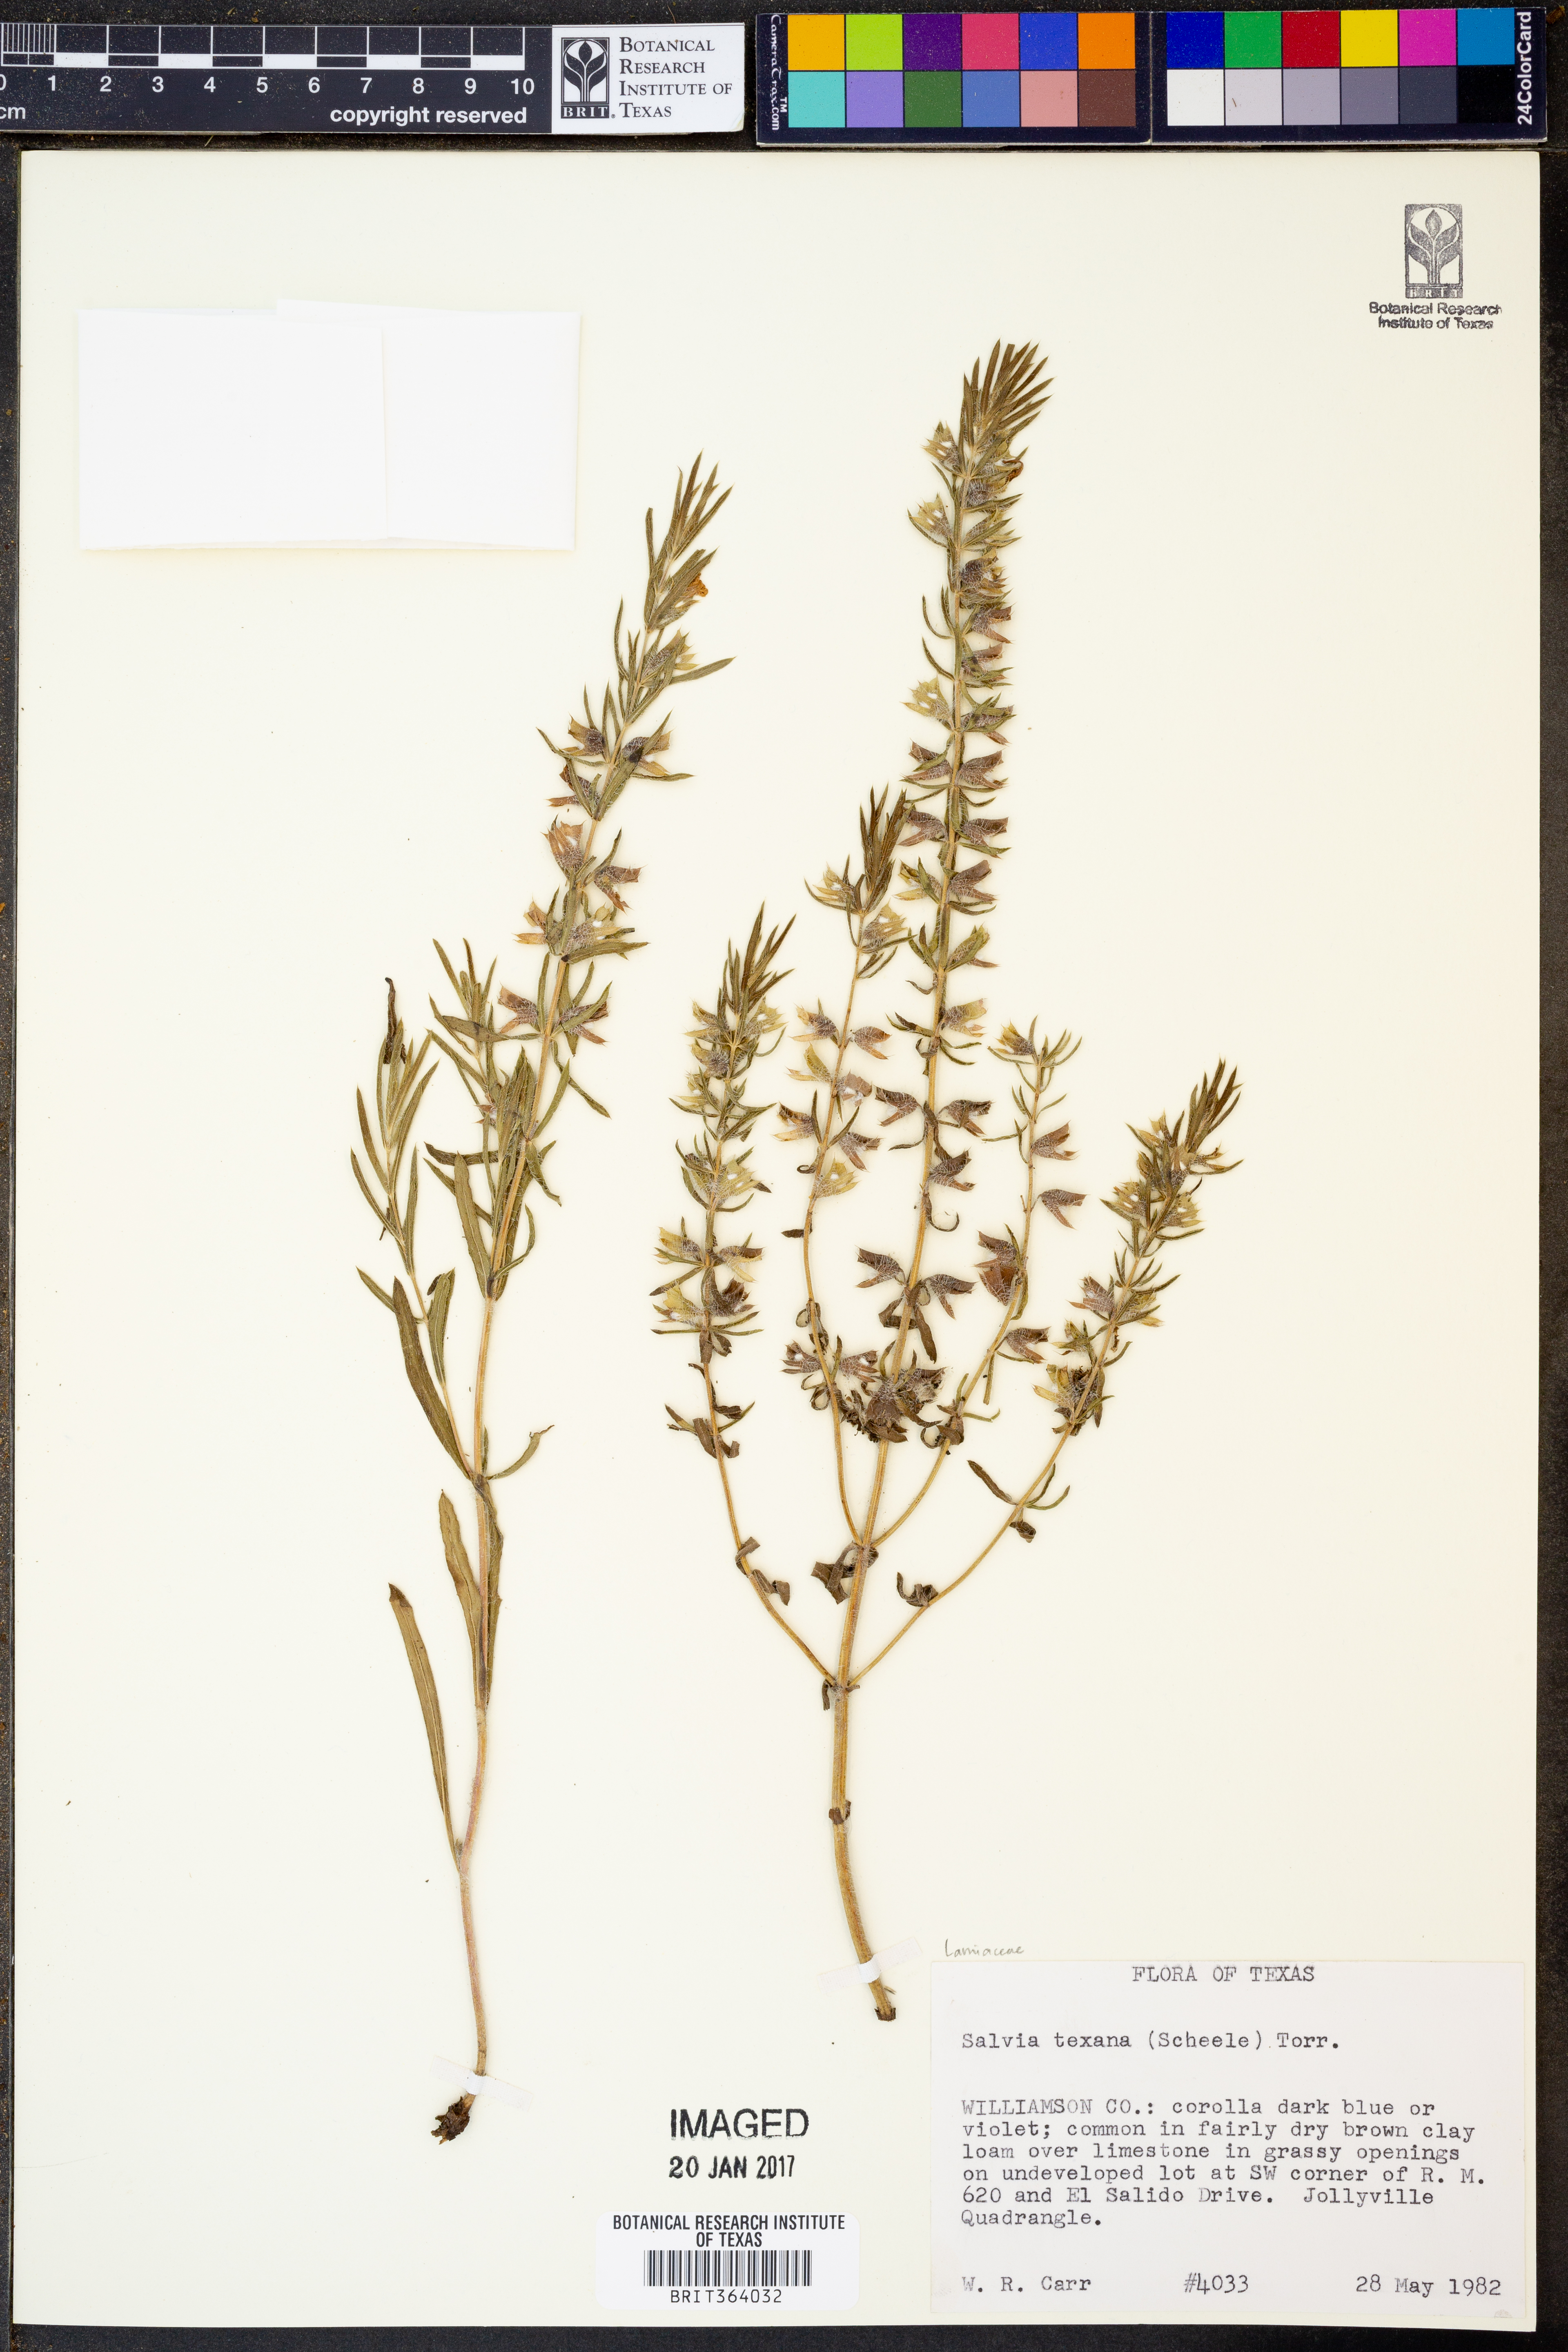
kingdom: Plantae
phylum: Tracheophyta
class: Magnoliopsida
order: Lamiales
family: Lamiaceae
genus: Salvia
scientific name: Salvia texana
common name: Texas sage
